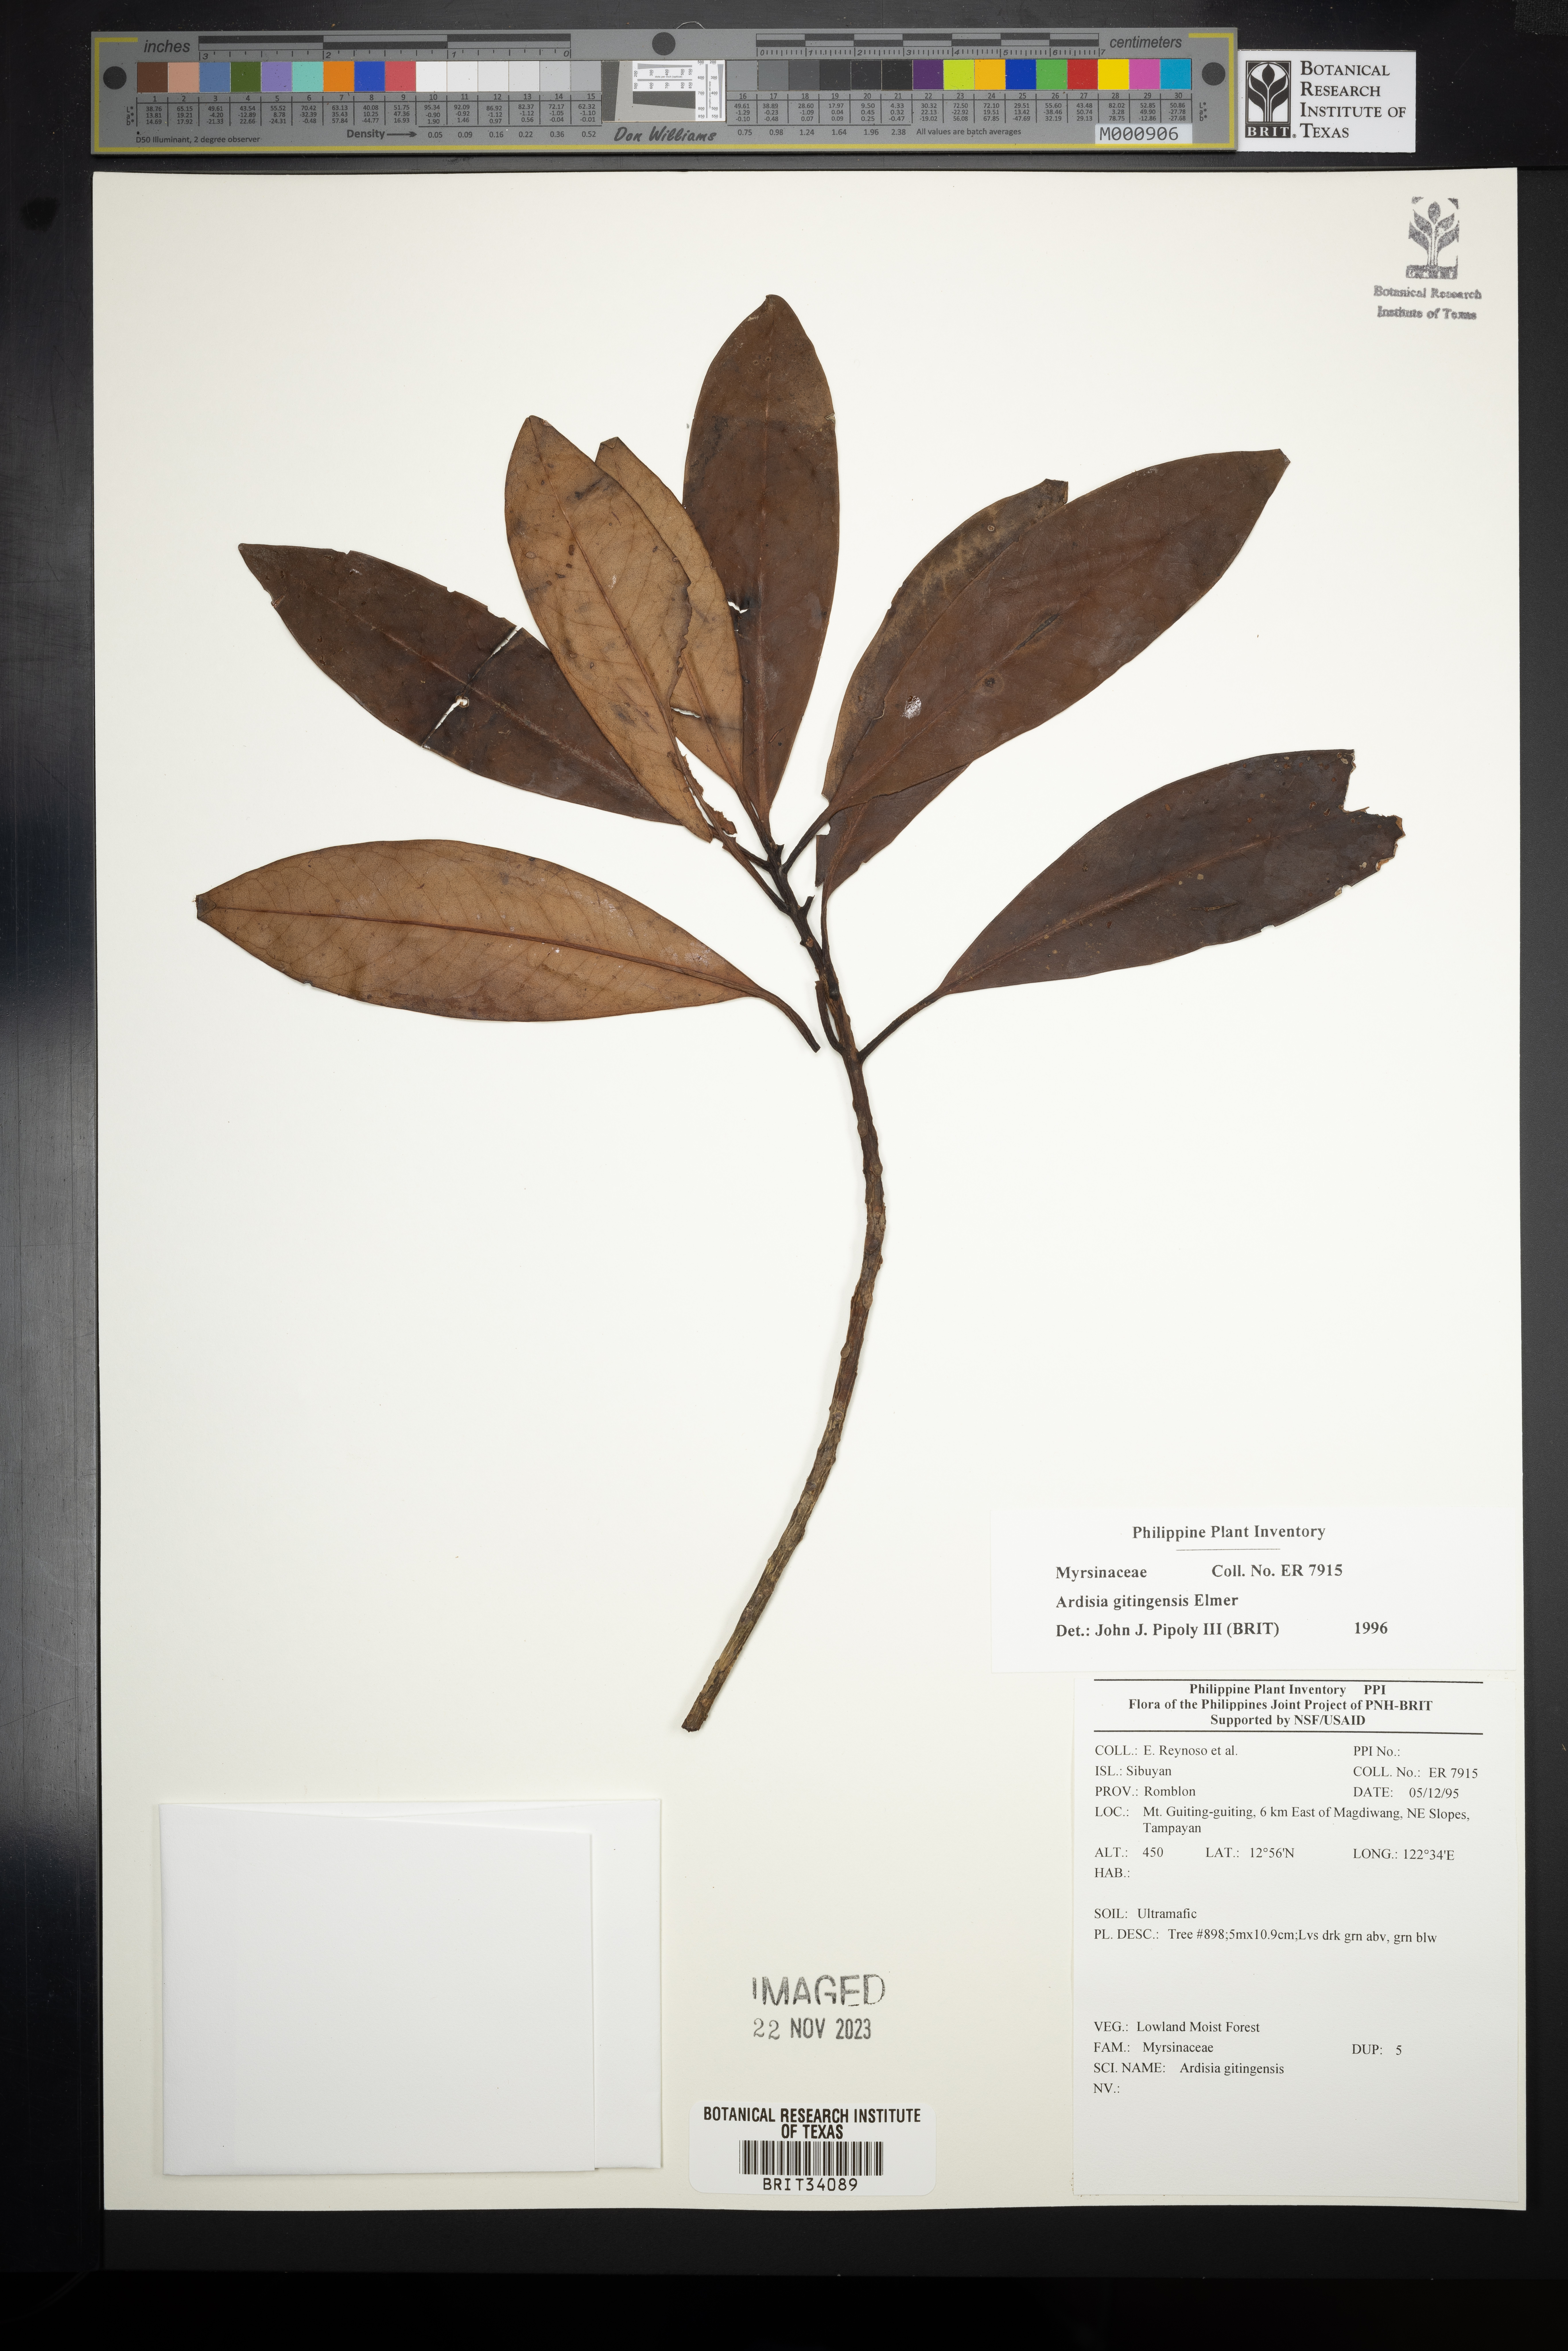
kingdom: Plantae
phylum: Tracheophyta
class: Magnoliopsida
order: Ericales
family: Primulaceae
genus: Ardisia
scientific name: Ardisia darlingii
